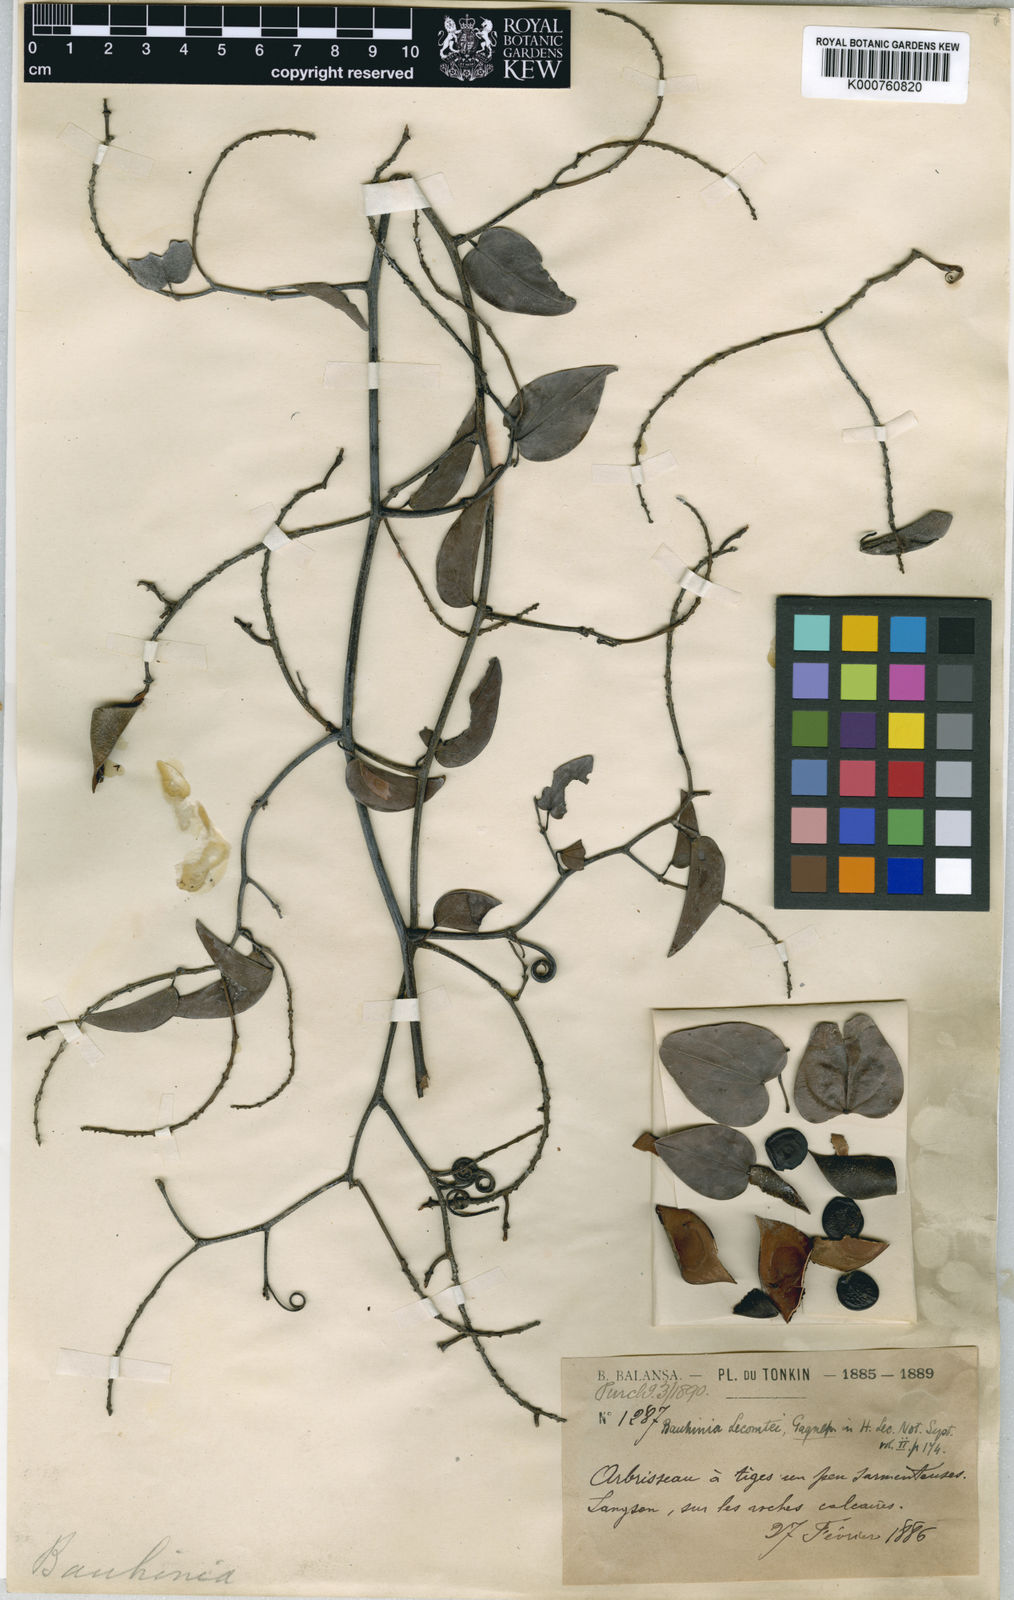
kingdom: Plantae
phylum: Tracheophyta
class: Magnoliopsida
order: Fabales
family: Fabaceae
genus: Phanera
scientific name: Phanera championii
